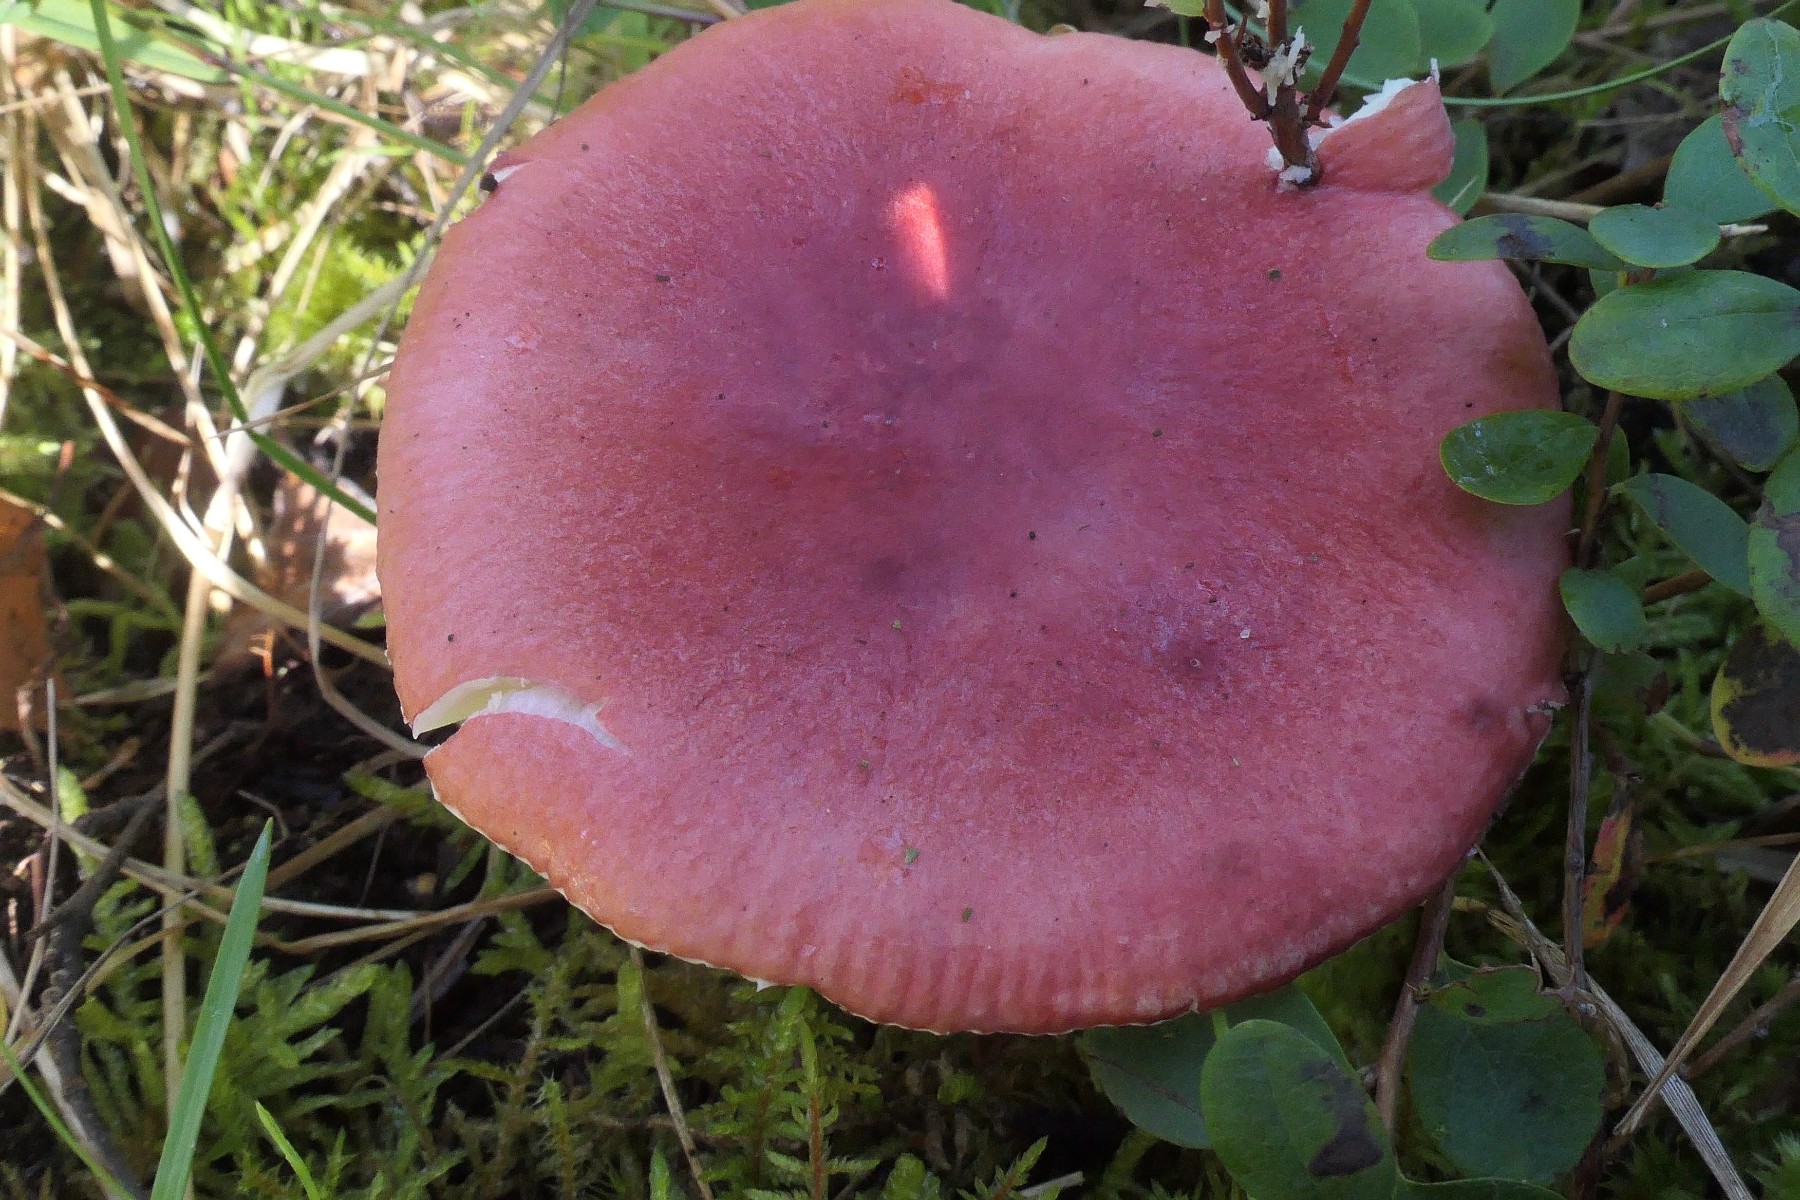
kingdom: Fungi
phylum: Basidiomycota
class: Agaricomycetes
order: Russulales
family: Russulaceae
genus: Russula
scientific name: Russula sanguinea
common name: blodrød skørhat
